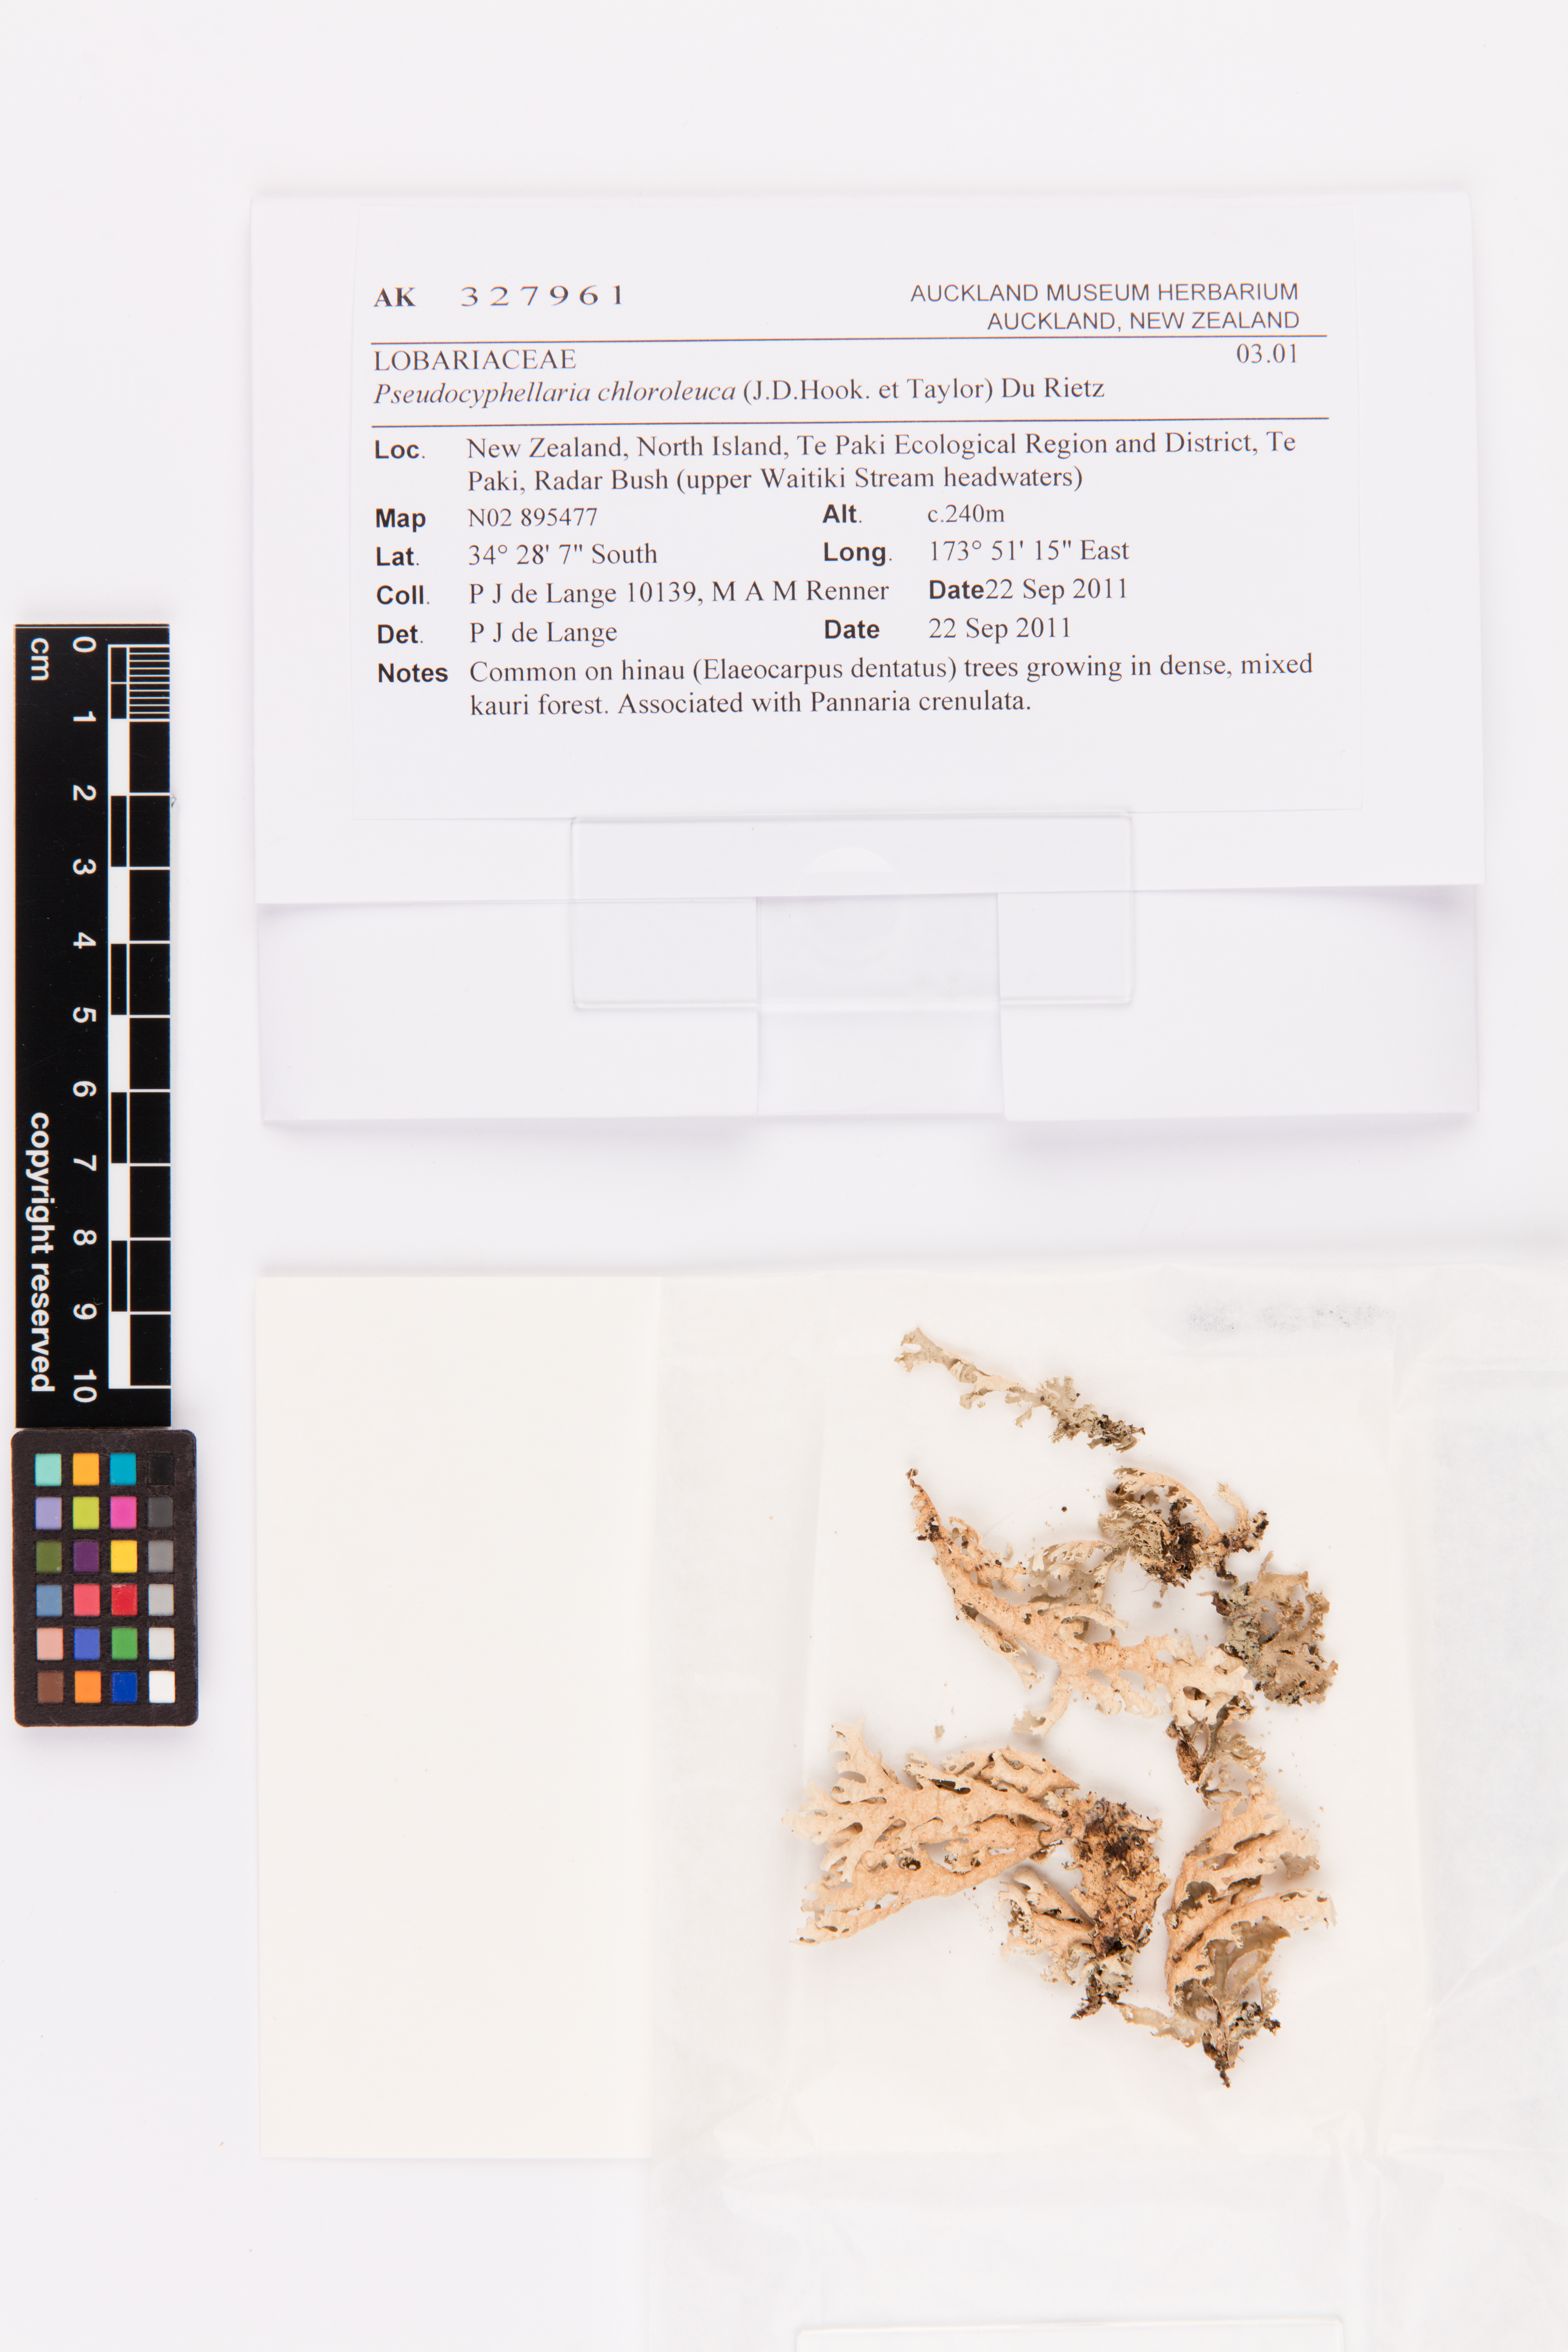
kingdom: Fungi
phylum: Ascomycota
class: Lecanoromycetes
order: Peltigerales
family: Lobariaceae
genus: Pseudocyphellaria
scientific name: Pseudocyphellaria chloroleuca
